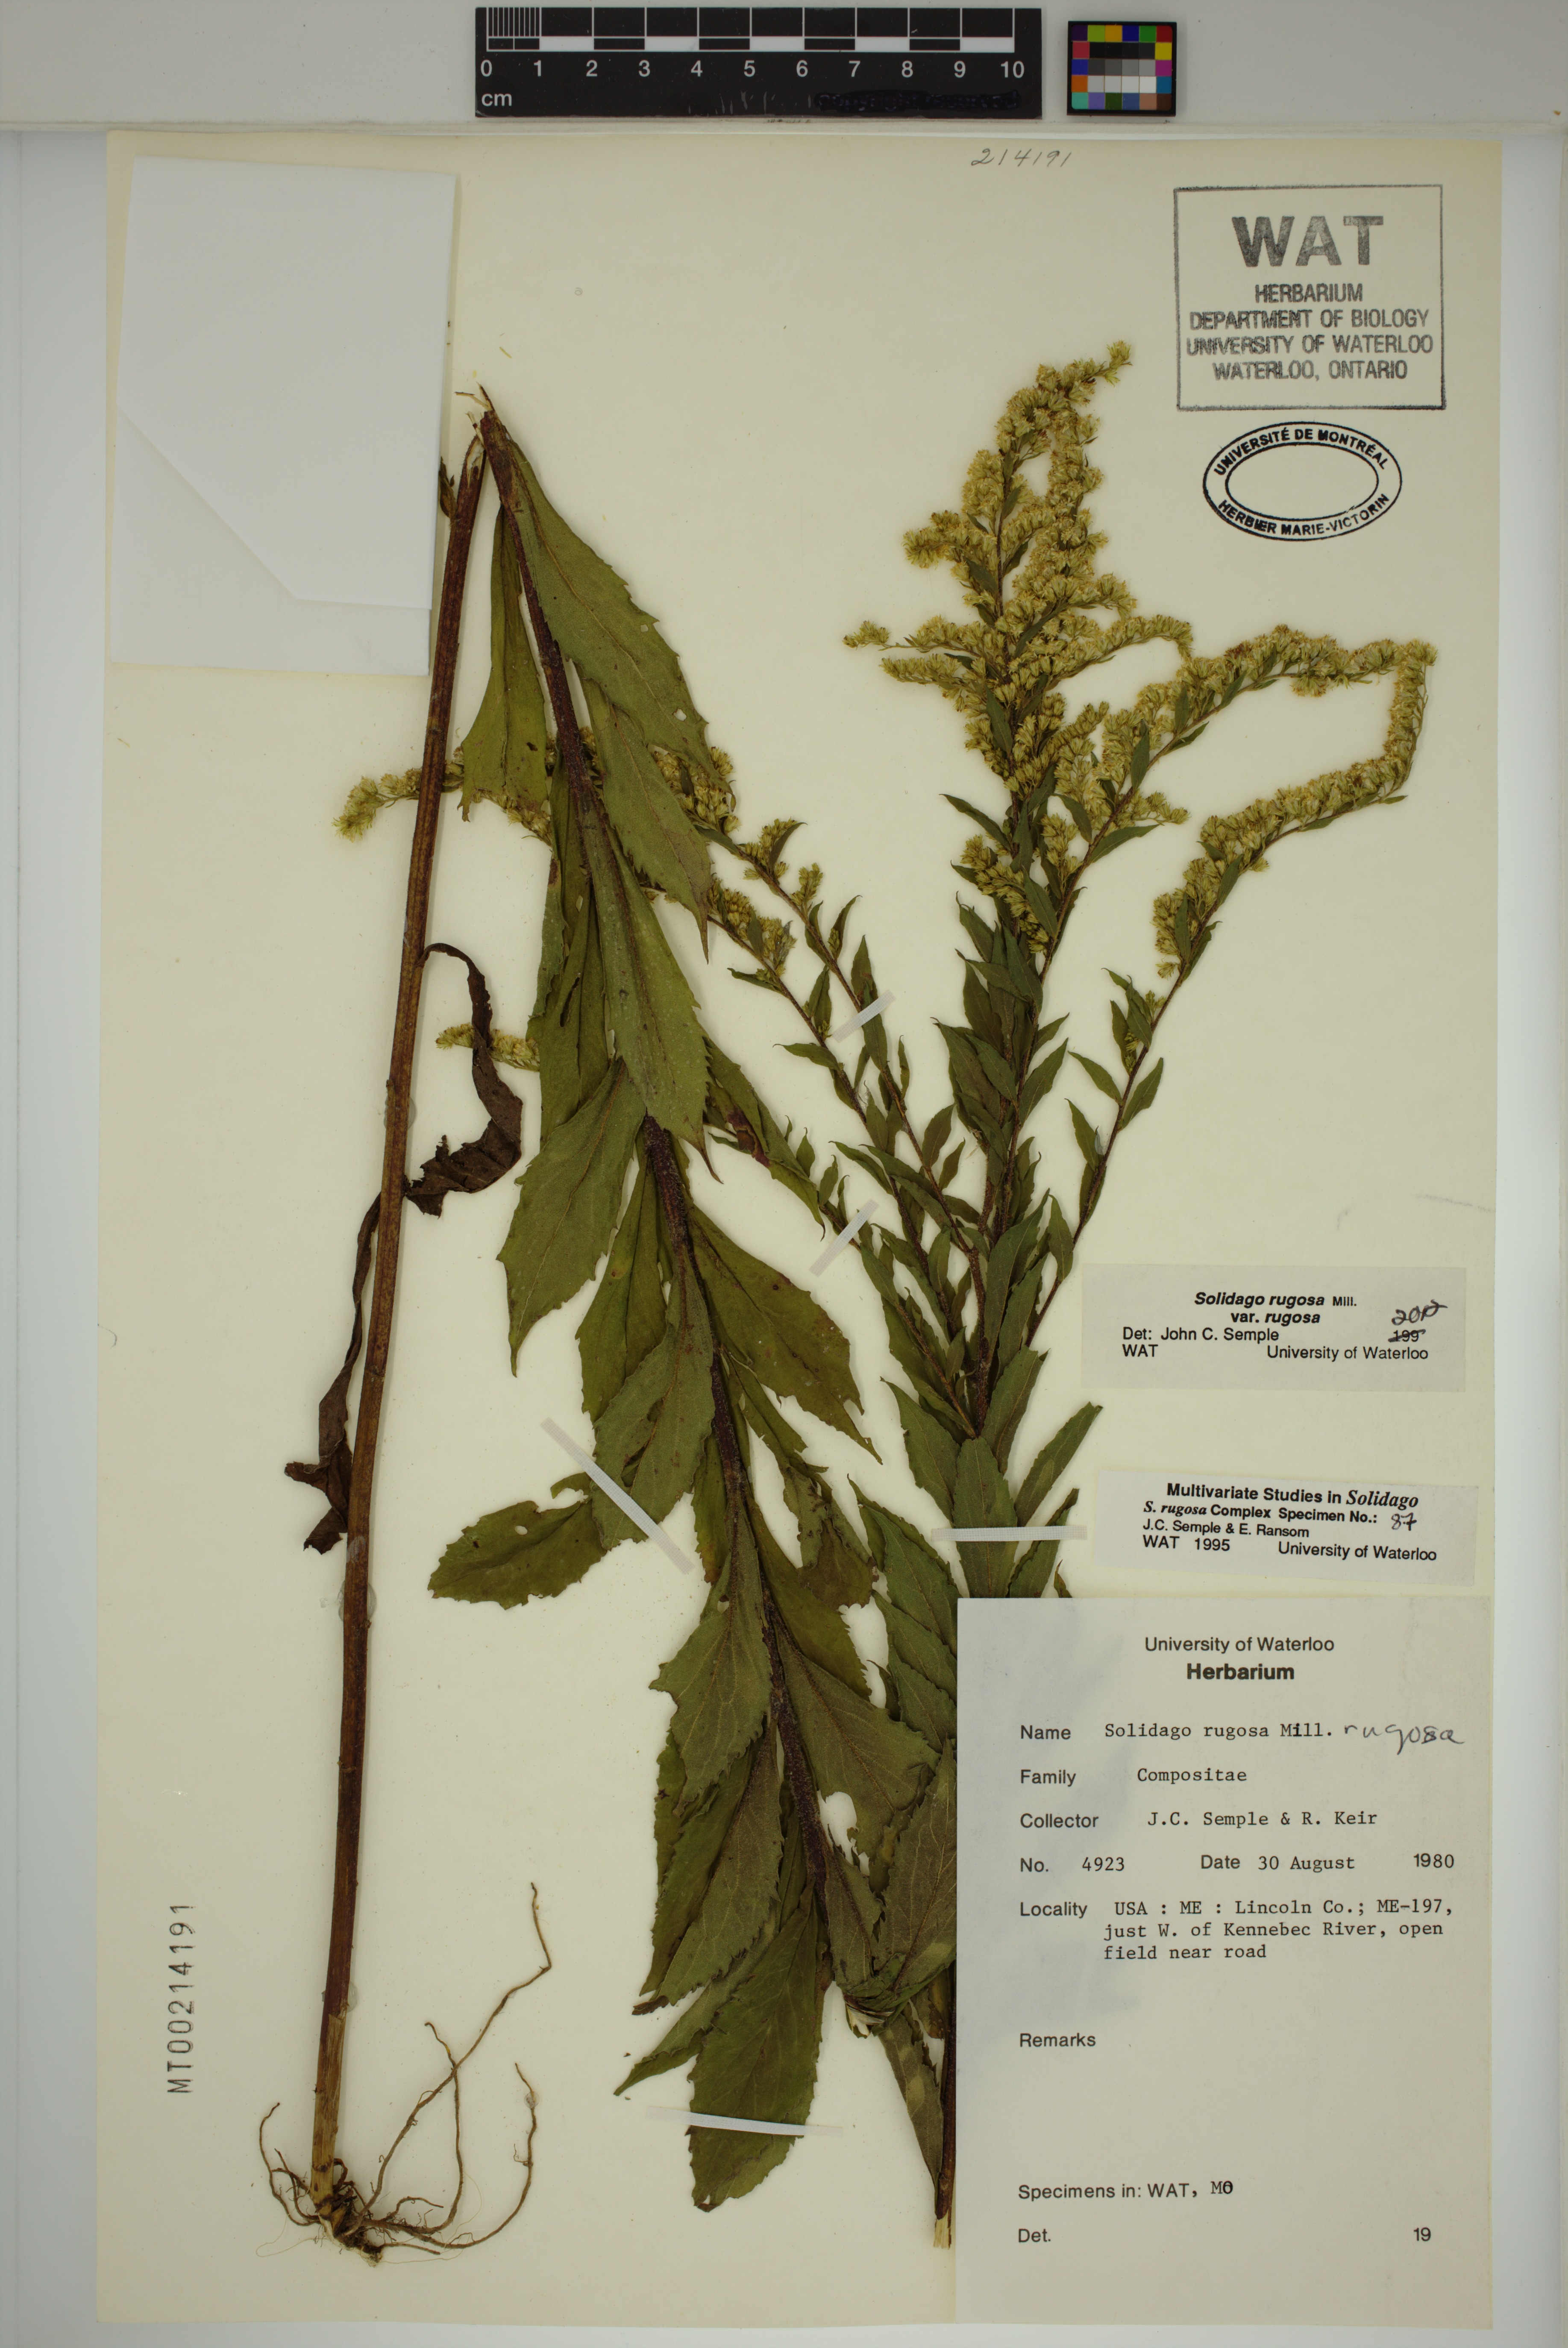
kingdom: Plantae
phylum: Tracheophyta
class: Magnoliopsida
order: Asterales
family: Asteraceae
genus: Solidago
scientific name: Solidago rugosa
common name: Rough-stemmed goldenrod
